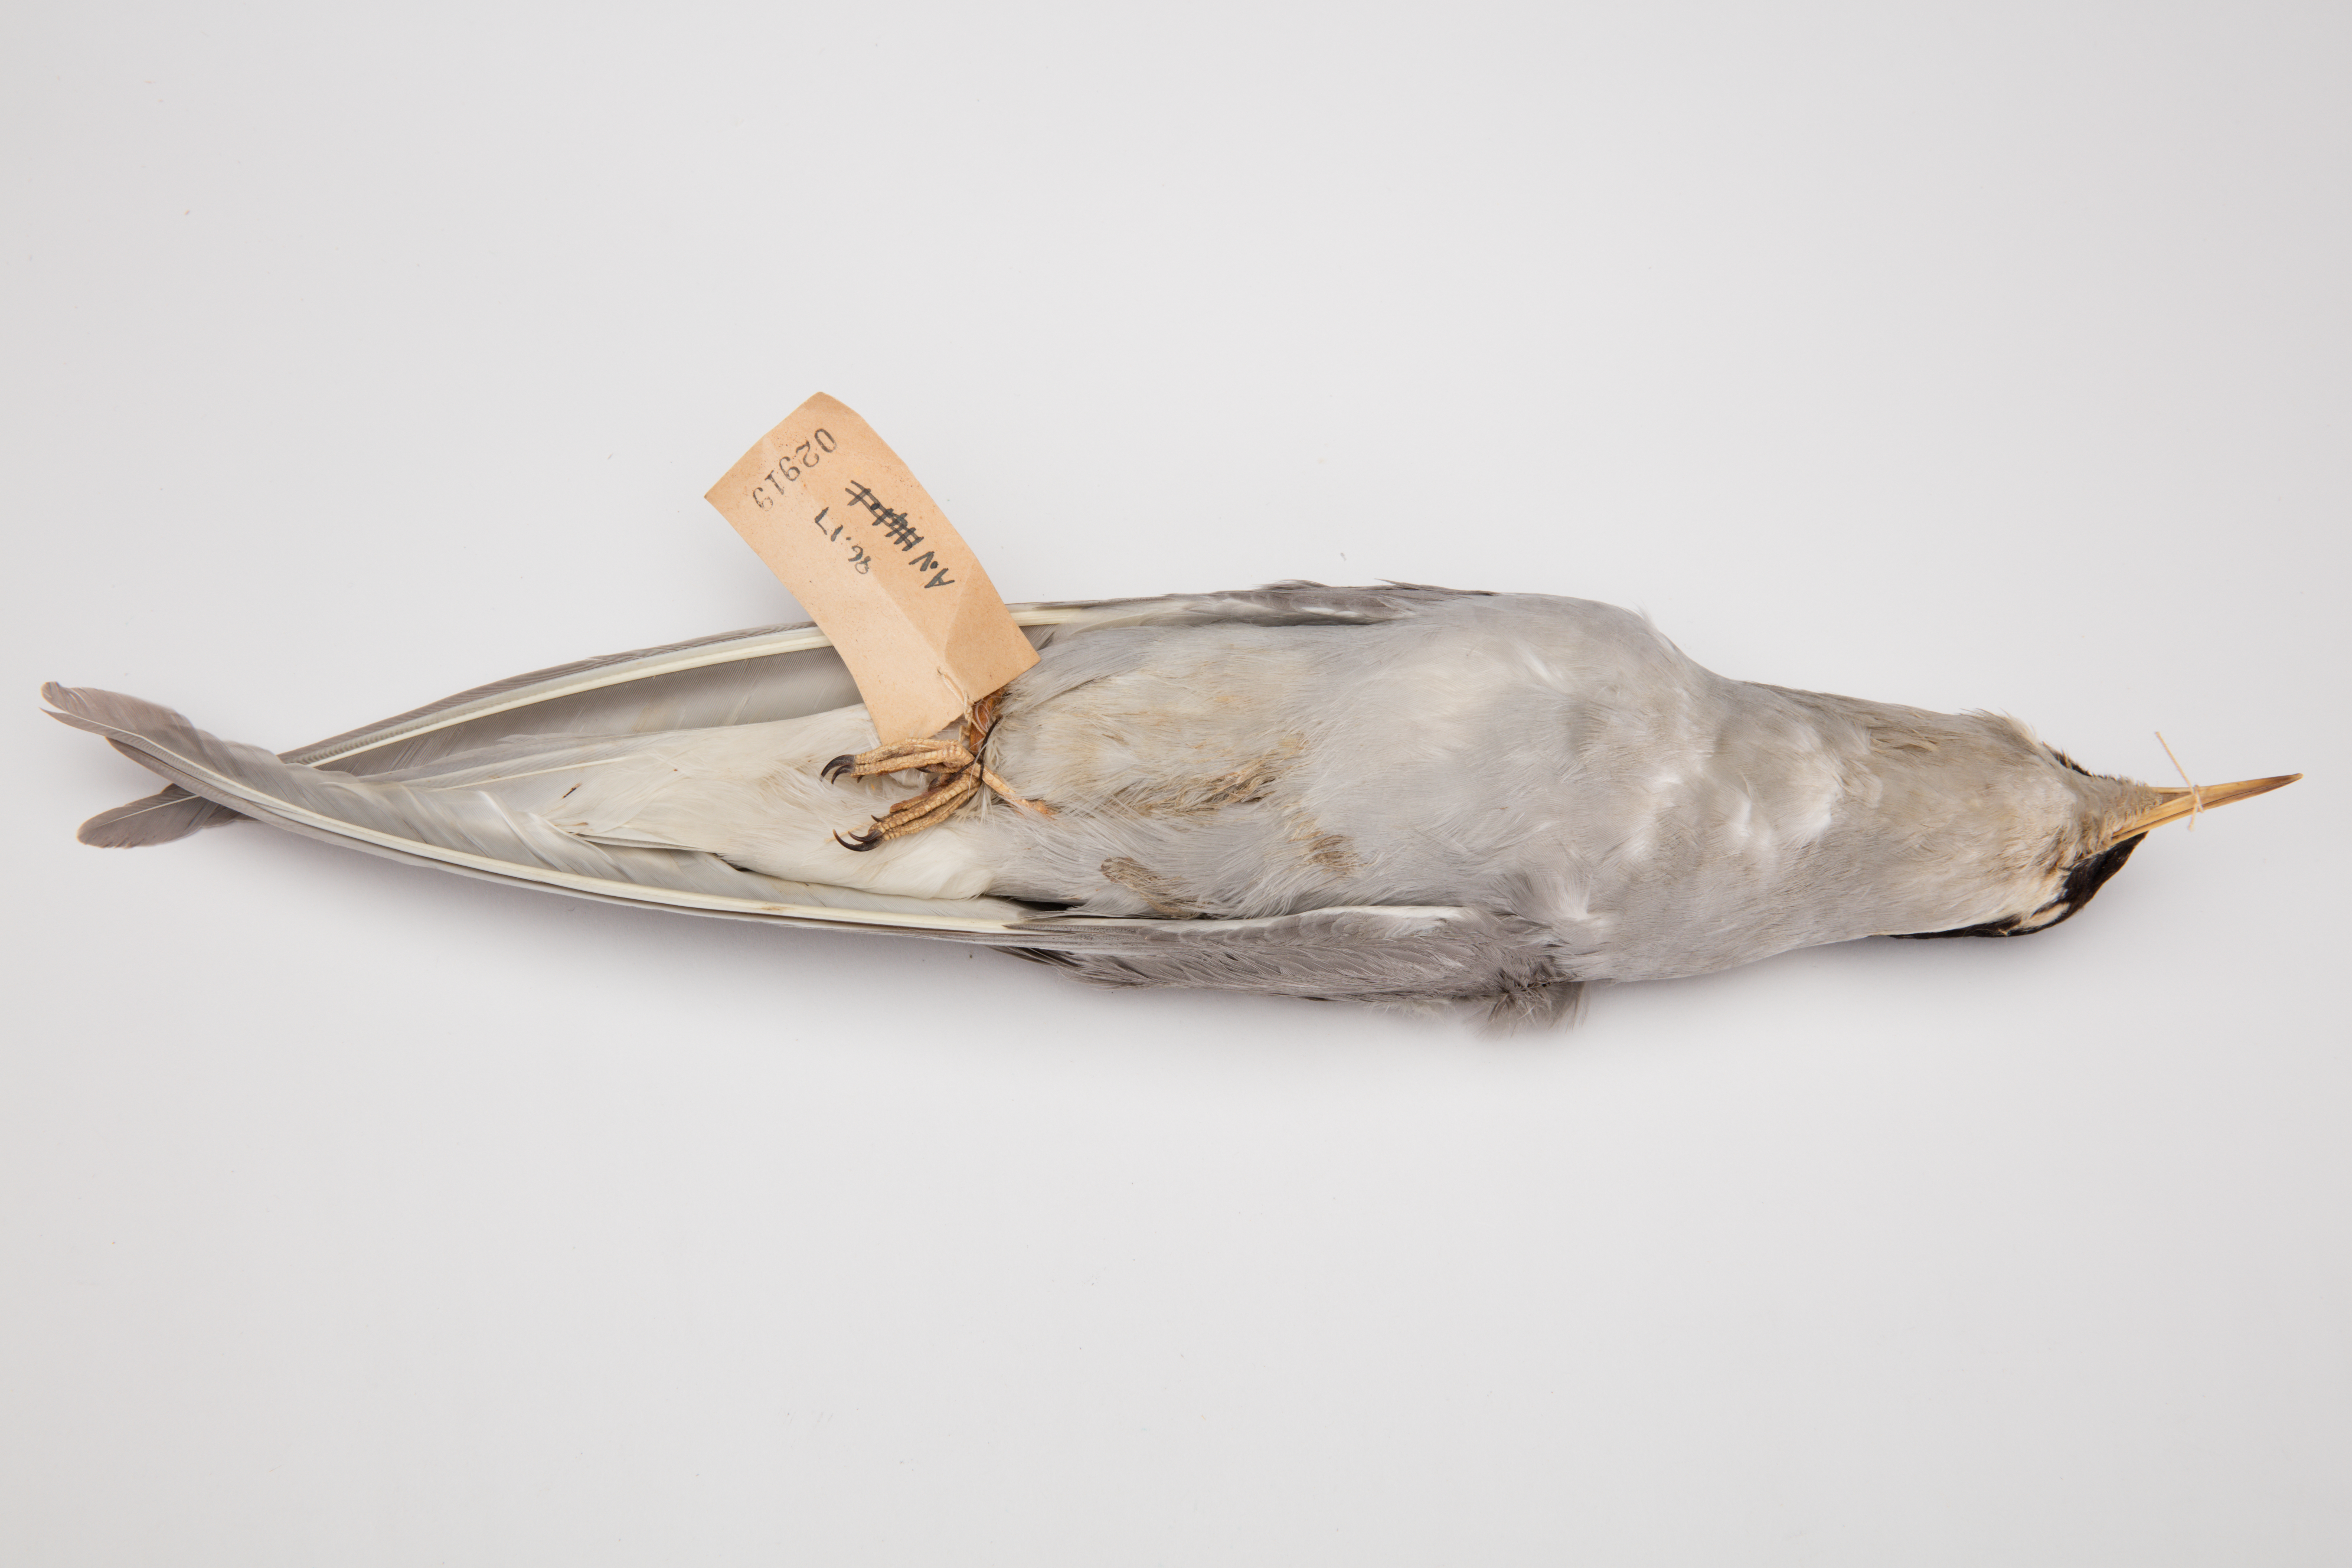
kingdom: Animalia
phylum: Chordata
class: Aves
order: Charadriiformes
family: Laridae
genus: Chlidonias
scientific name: Chlidonias albostriatus
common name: Black-fronted tern
